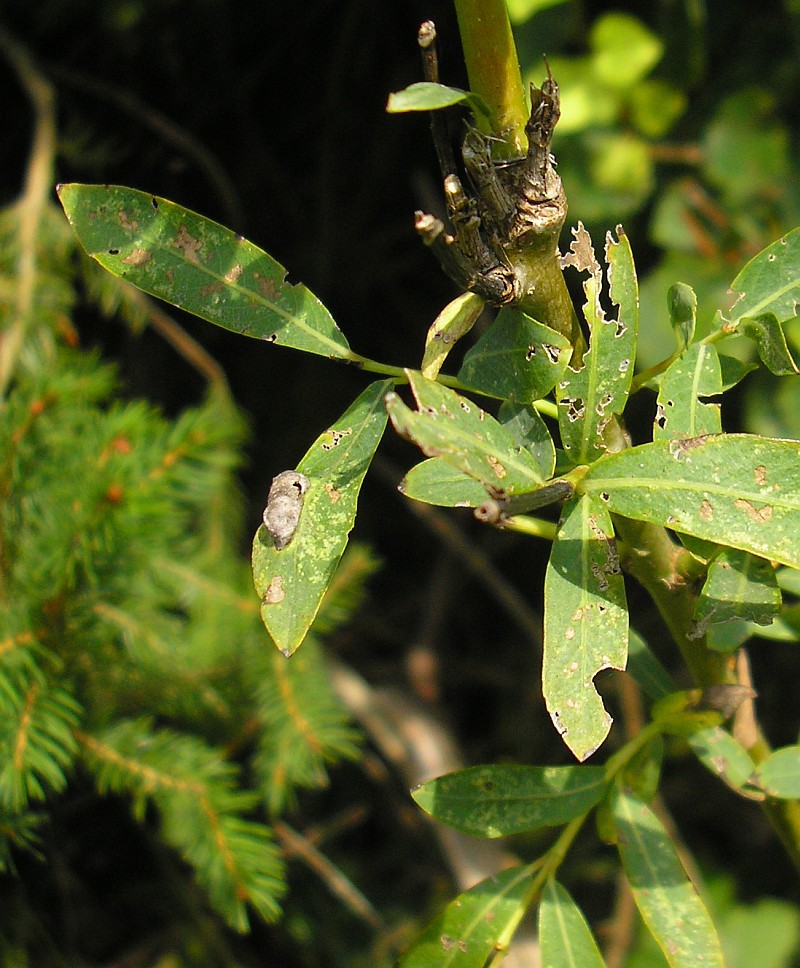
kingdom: Animalia
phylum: Arthropoda
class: Insecta
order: Hymenoptera
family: Tenthredinidae
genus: Pontania
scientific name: Pontania virilis
